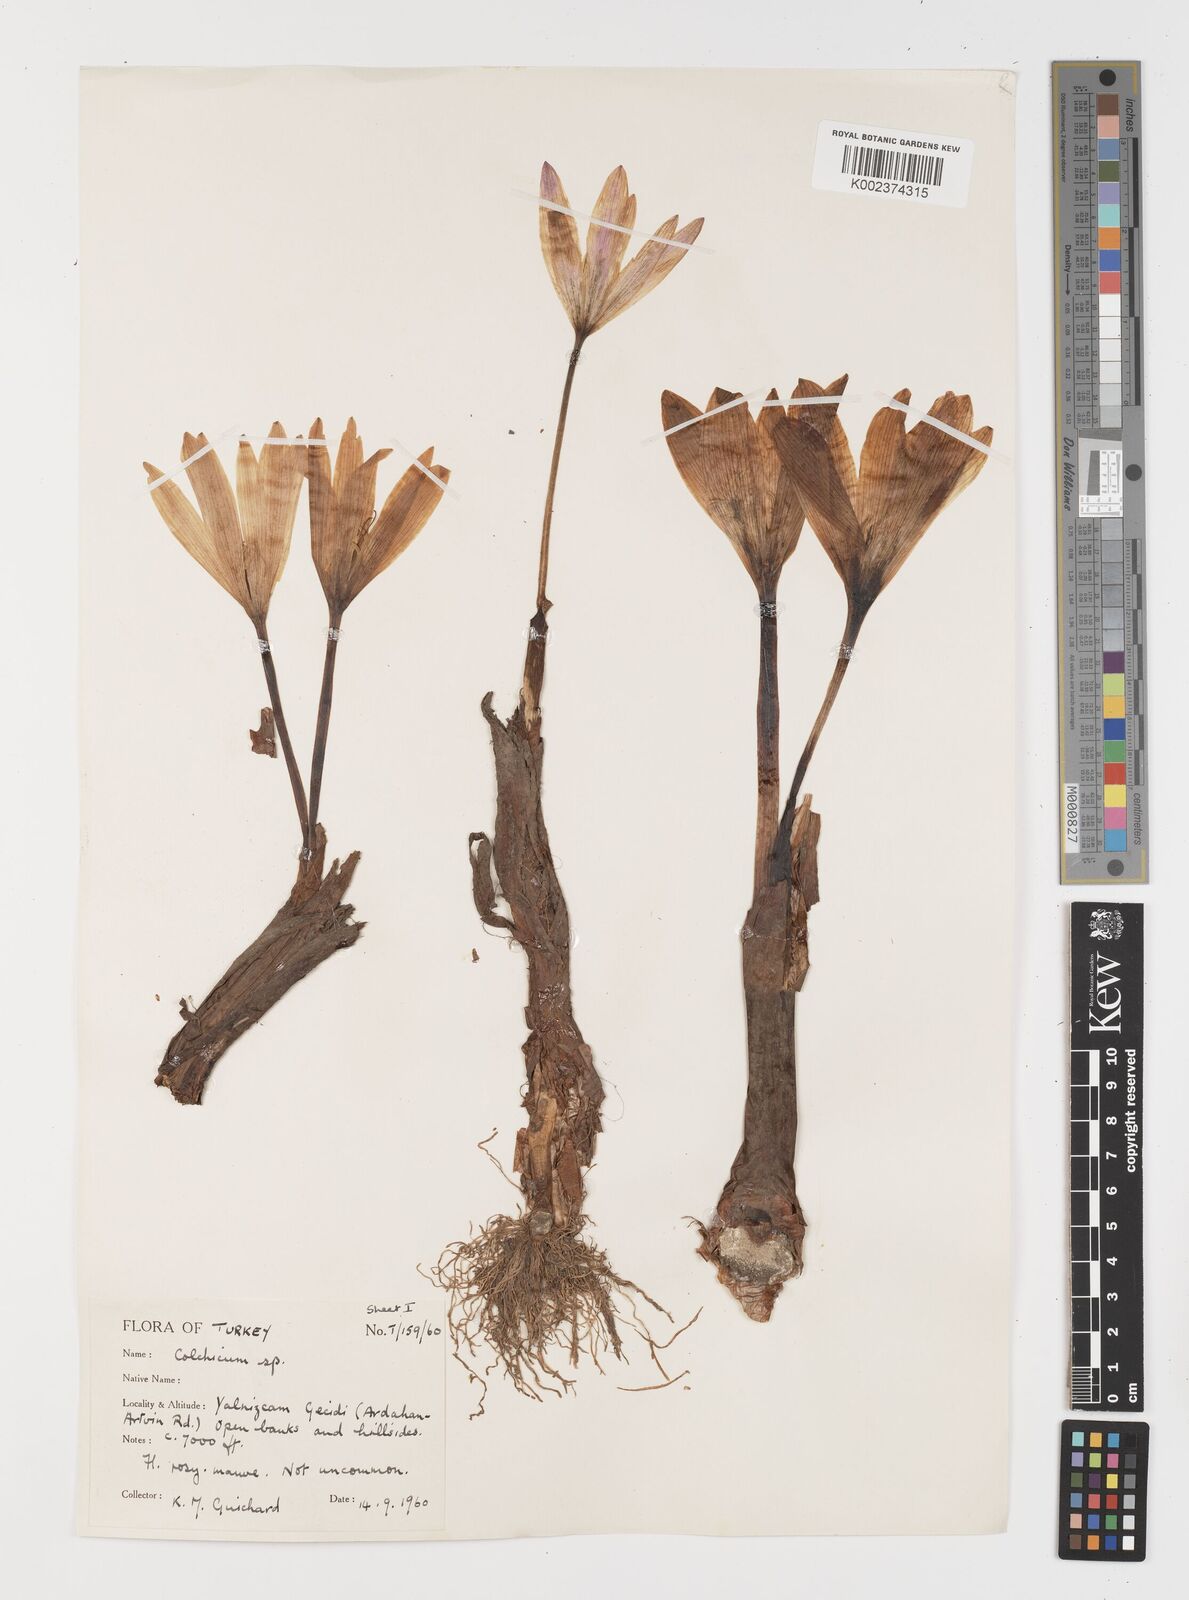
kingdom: Plantae
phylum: Tracheophyta
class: Liliopsida
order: Liliales
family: Colchicaceae
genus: Colchicum
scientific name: Colchicum
